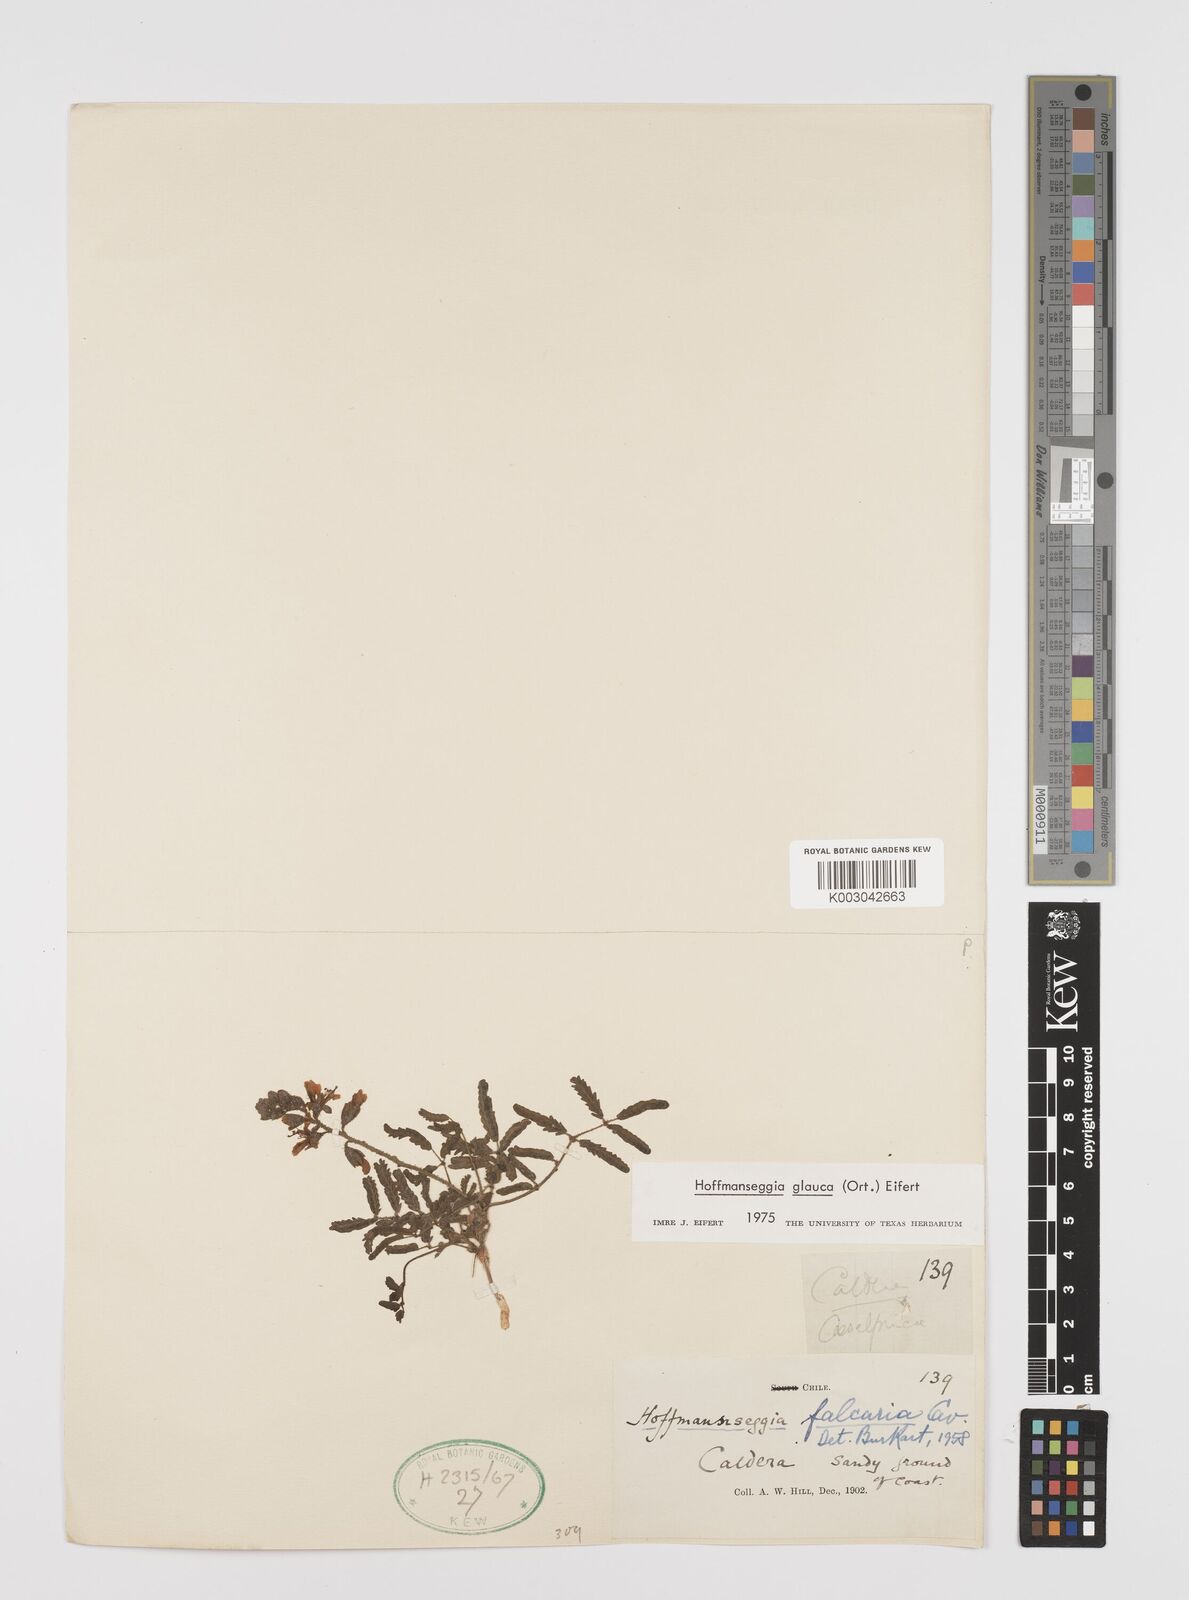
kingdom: Plantae
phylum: Tracheophyta
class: Magnoliopsida
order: Fabales
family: Fabaceae
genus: Hoffmannseggia
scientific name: Hoffmannseggia glauca
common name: Pignut
